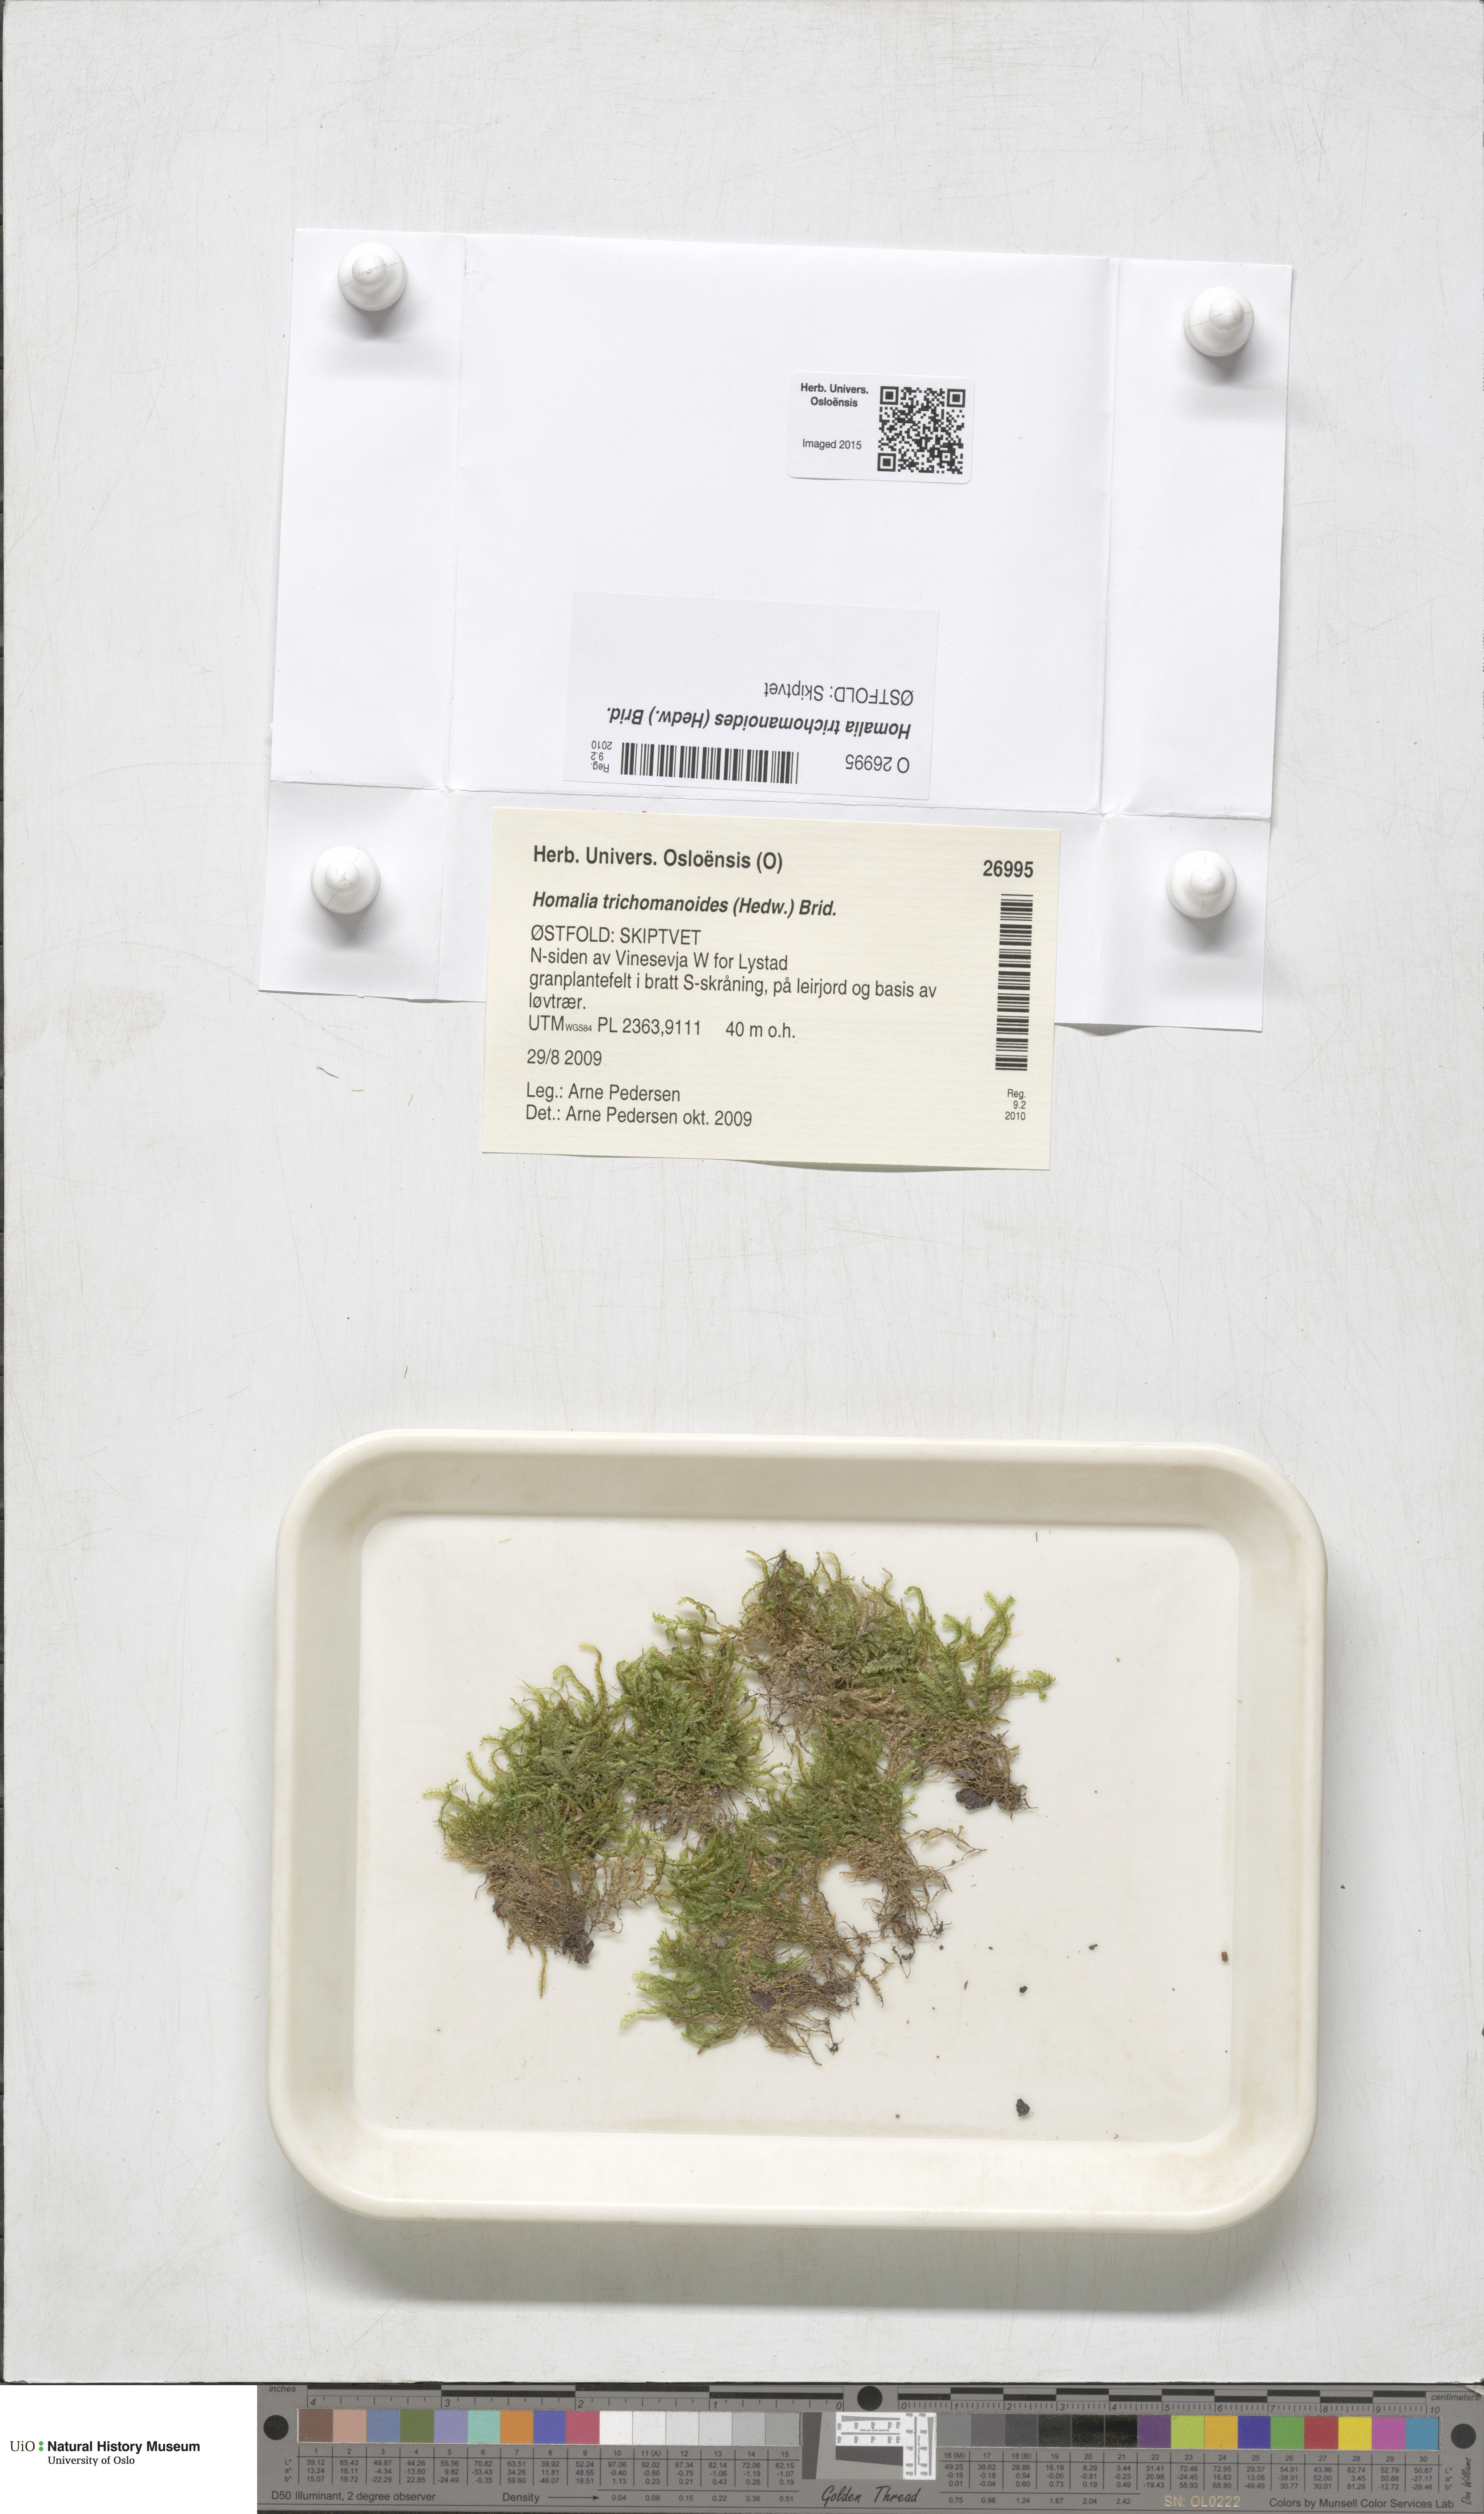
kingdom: Plantae
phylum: Bryophyta
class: Bryopsida
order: Hypnales
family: Neckeraceae
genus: Homalia
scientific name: Homalia trichomanoides
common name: Lime homalia moss
